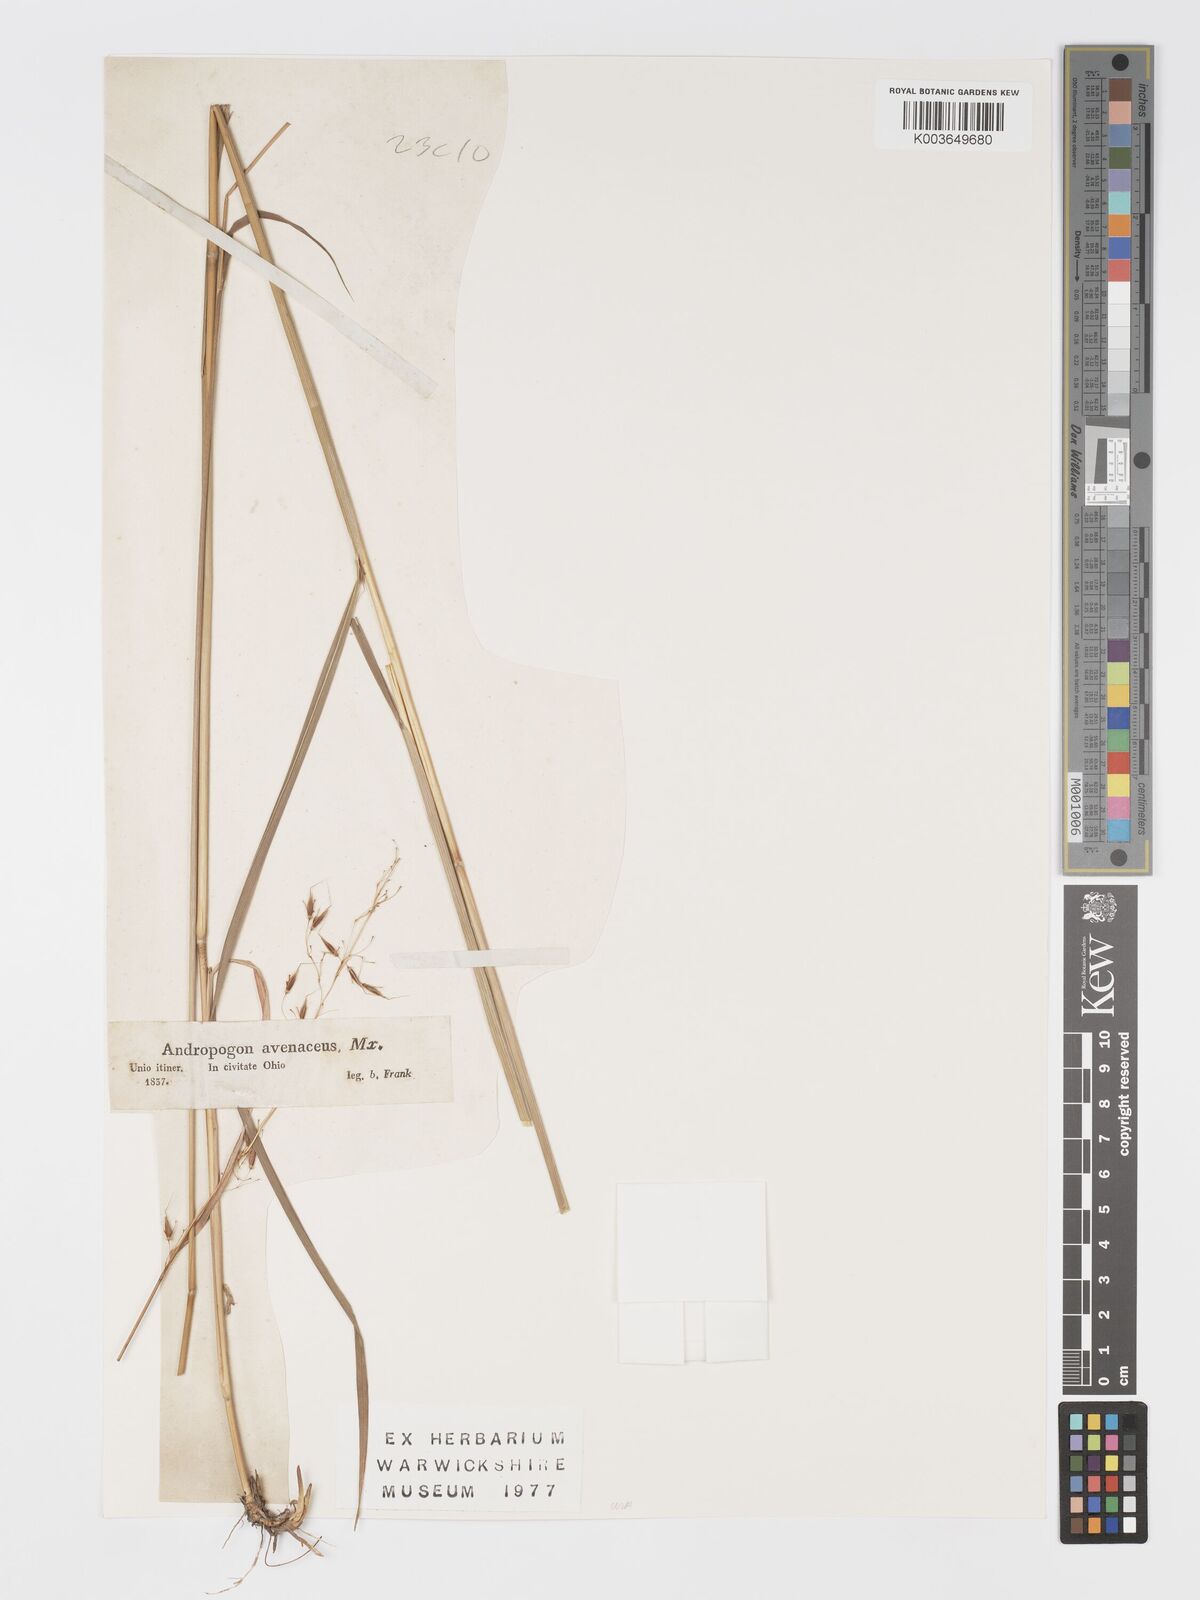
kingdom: Plantae
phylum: Tracheophyta
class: Liliopsida
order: Poales
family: Poaceae
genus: Sorghastrum
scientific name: Sorghastrum nutans
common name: Indian grass
